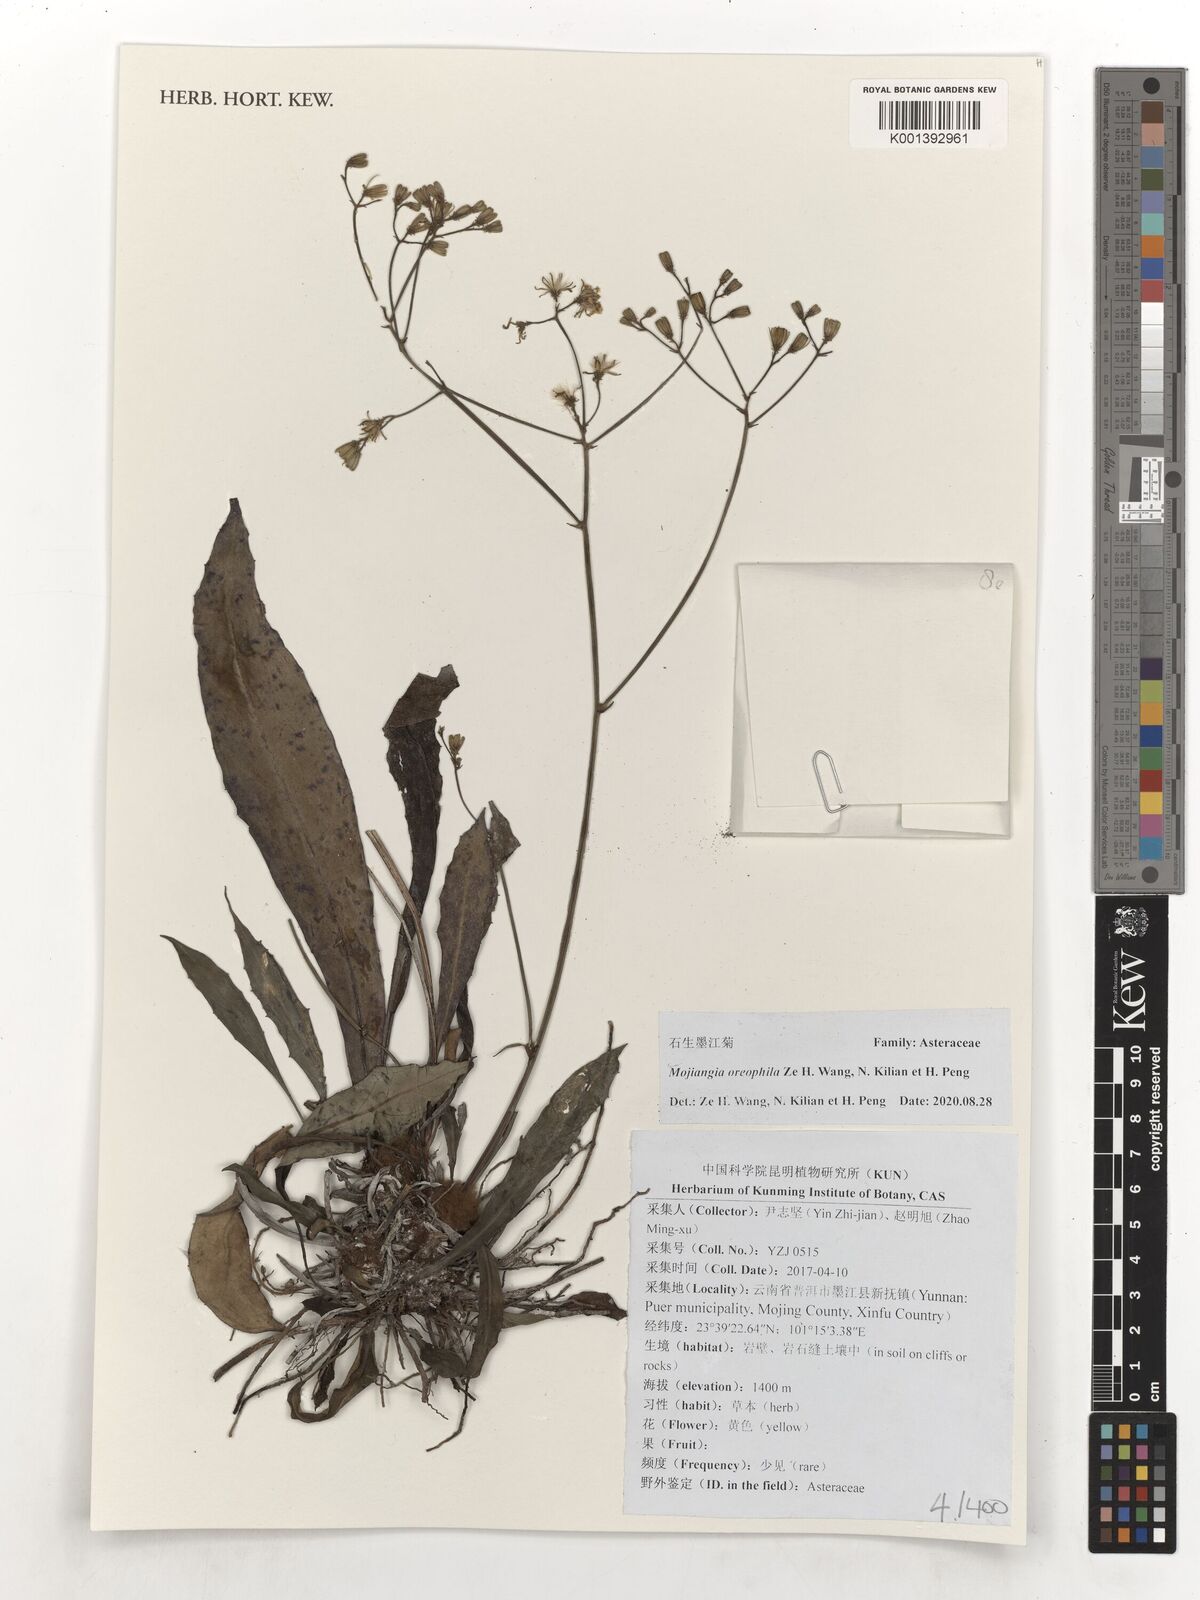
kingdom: Plantae
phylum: Tracheophyta
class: Magnoliopsida
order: Asterales
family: Asteraceae
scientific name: Asteraceae
